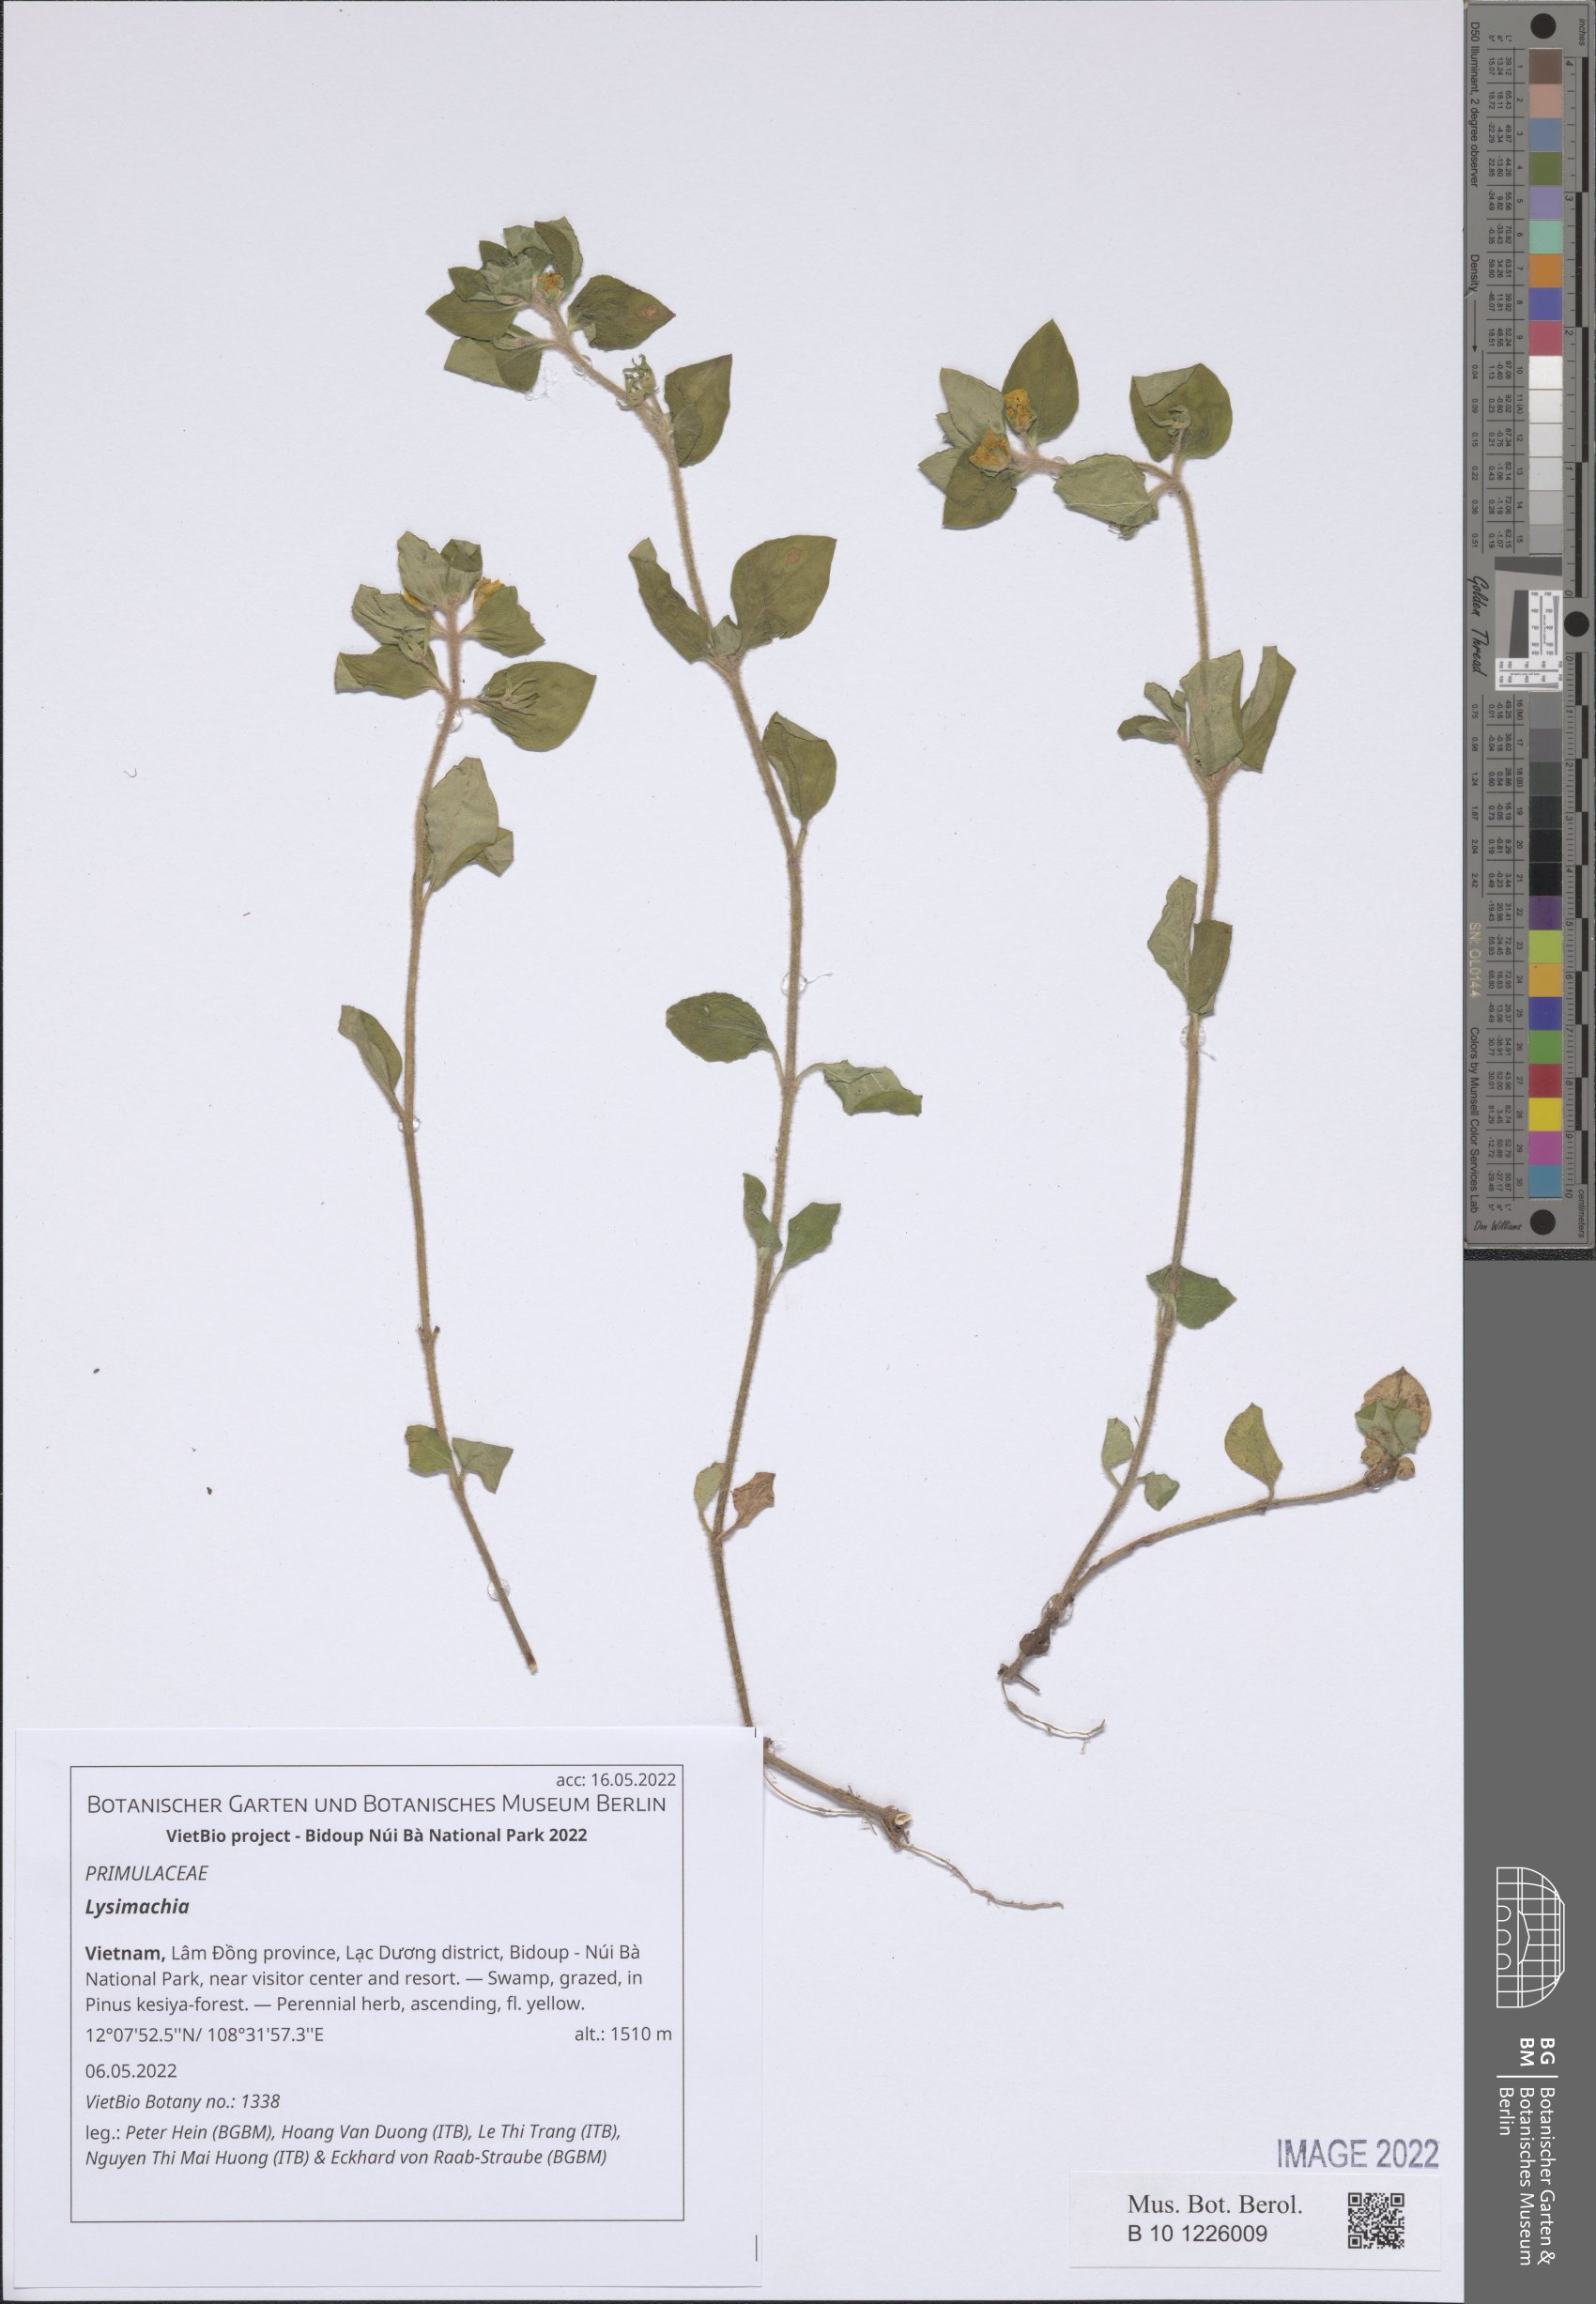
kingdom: Plantae
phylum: Tracheophyta
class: Magnoliopsida
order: Ericales
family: Primulaceae
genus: Lysimachia
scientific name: Lysimachia
